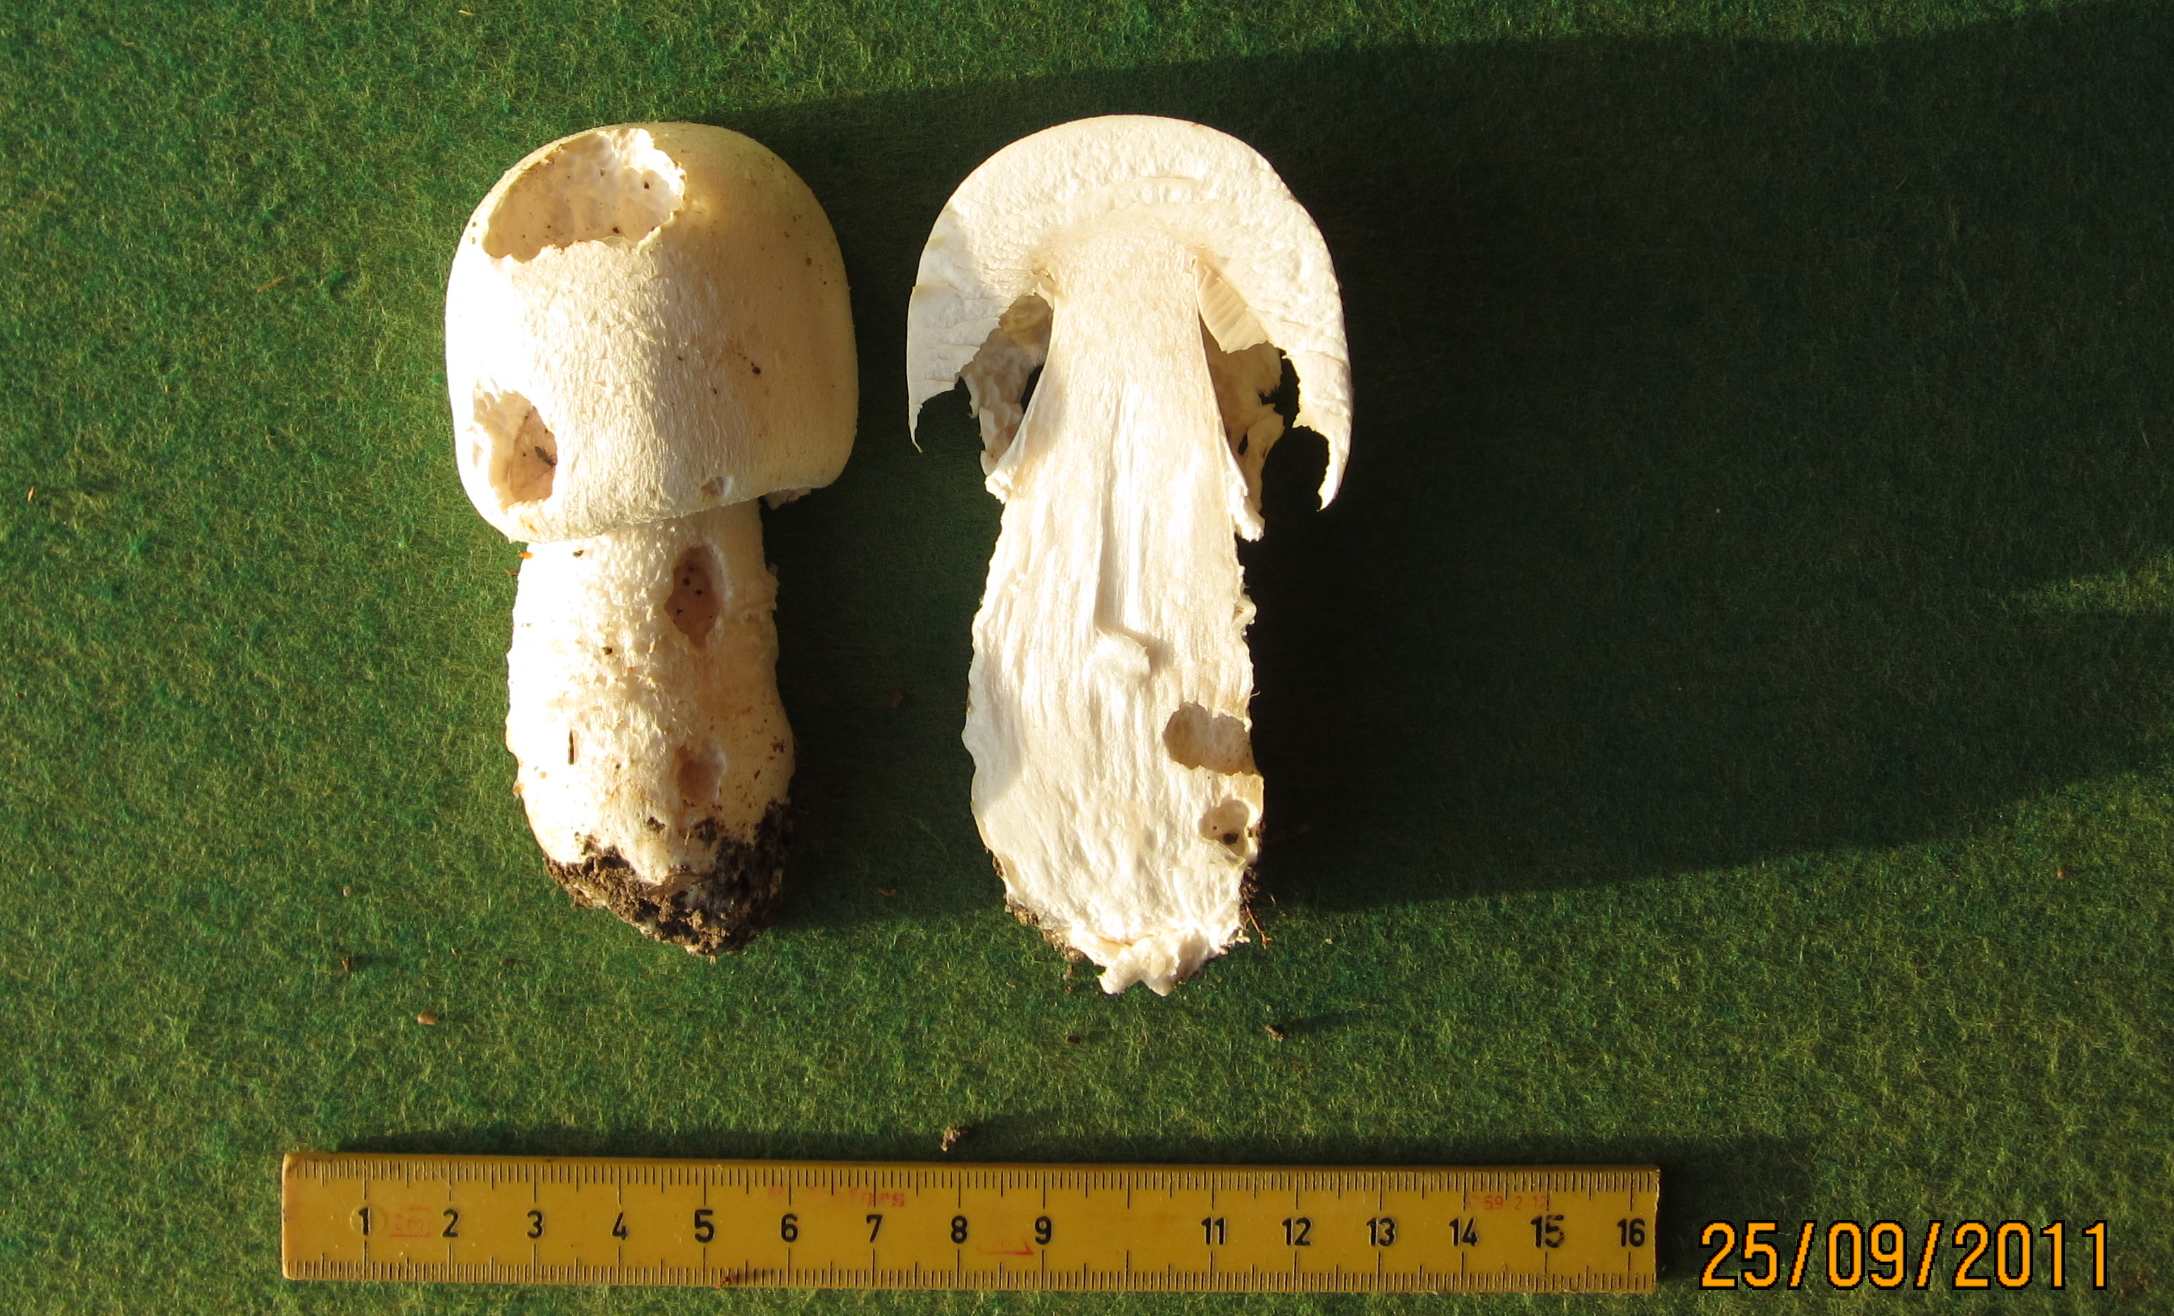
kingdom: Fungi
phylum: Basidiomycota
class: Agaricomycetes
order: Agaricales
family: Agaricaceae
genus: Agaricus
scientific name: Agaricus crocodilinus
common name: landsby-champignon
